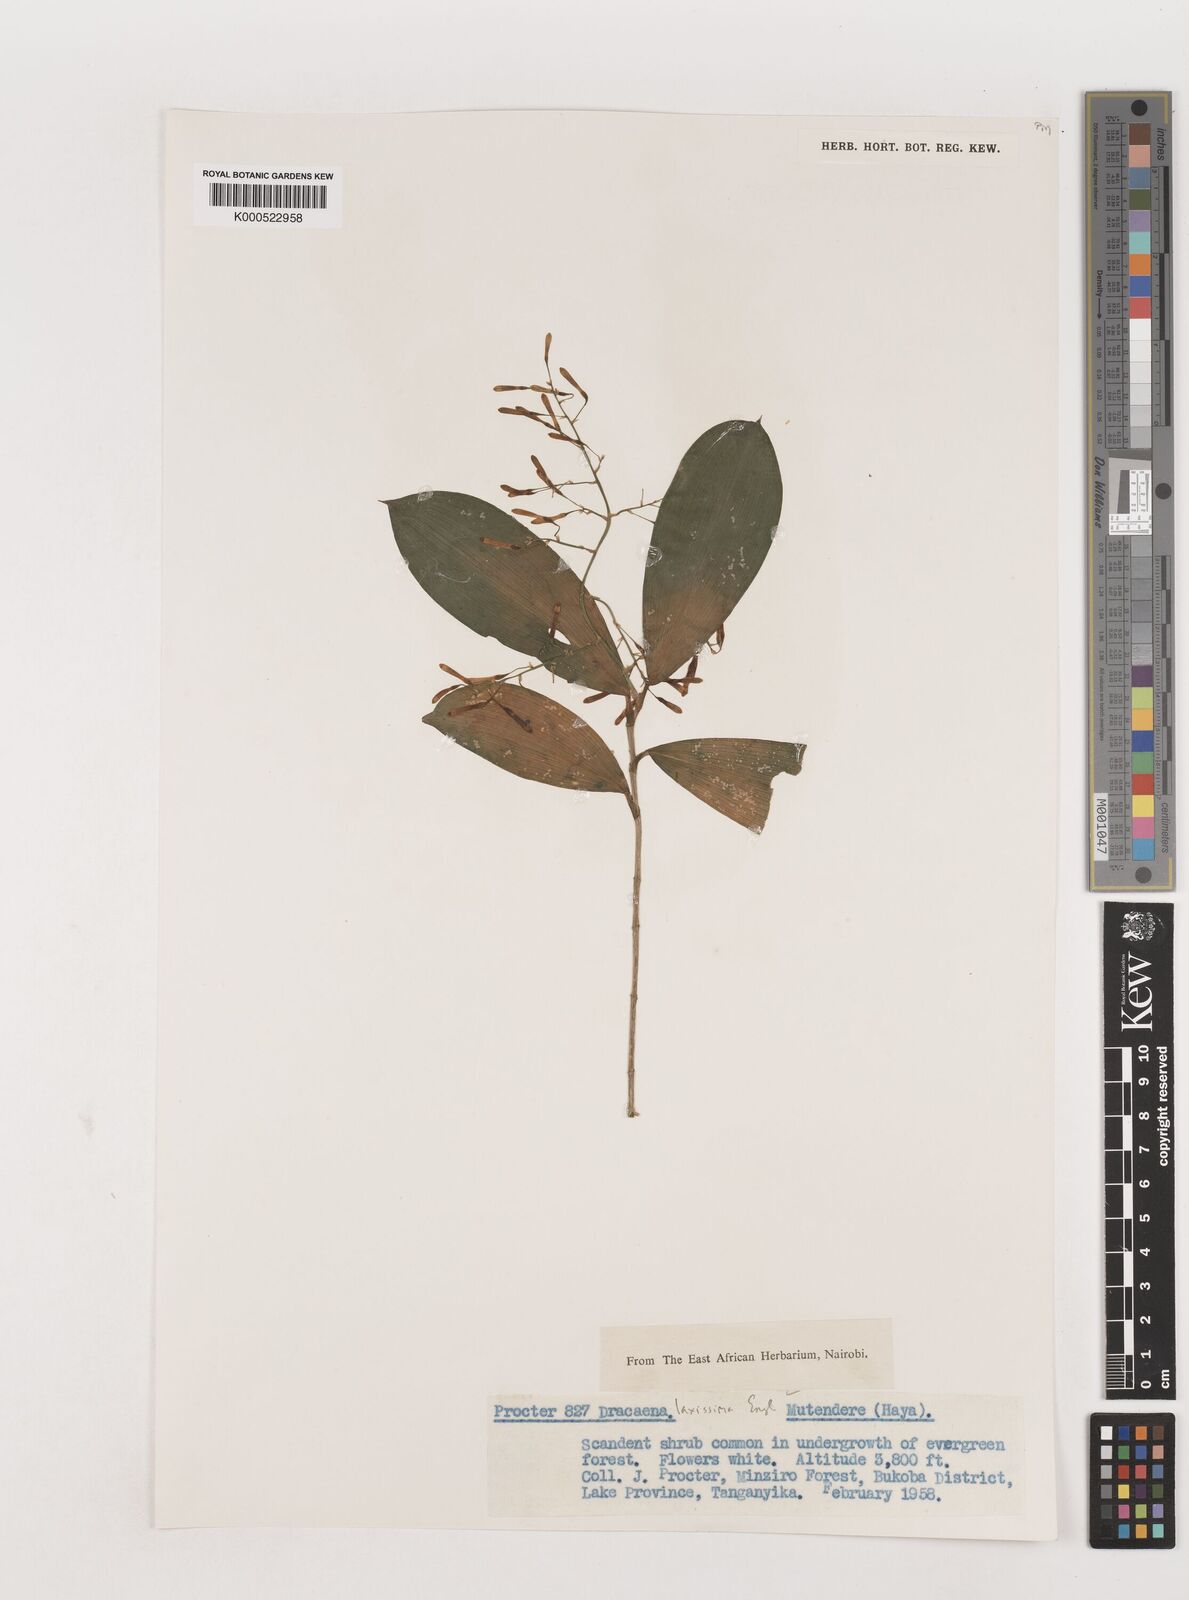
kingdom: Plantae
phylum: Tracheophyta
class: Liliopsida
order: Asparagales
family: Asparagaceae
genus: Dracaena
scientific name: Dracaena laxissima
